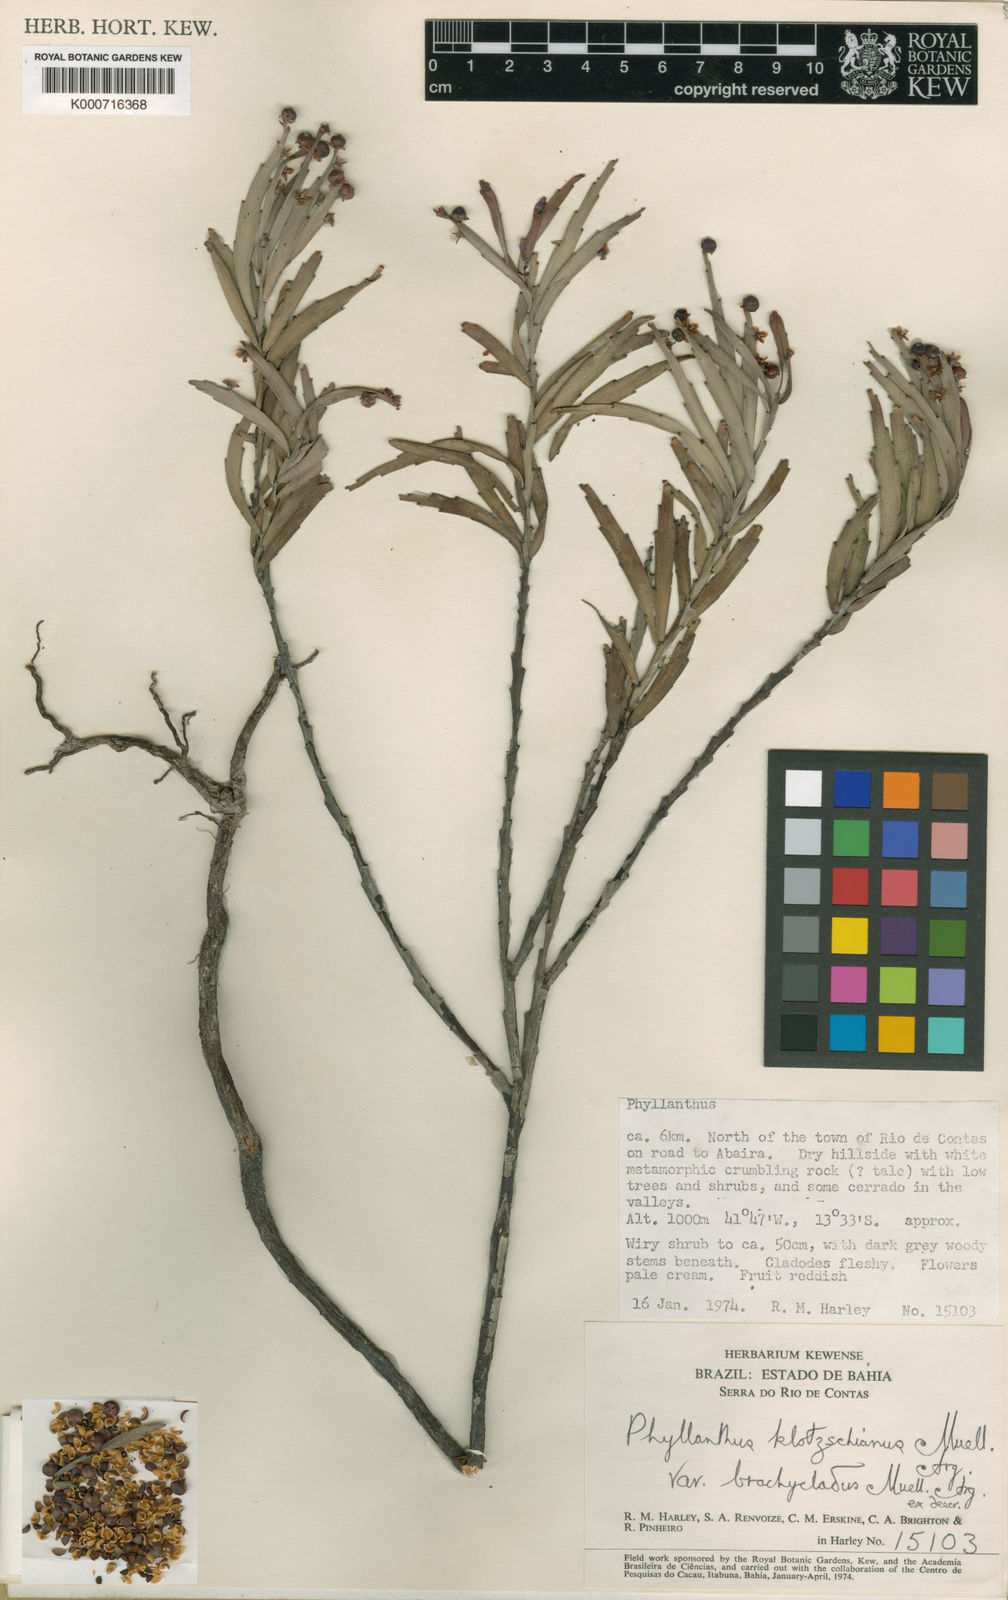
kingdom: Plantae
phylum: Tracheophyta
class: Magnoliopsida
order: Malpighiales
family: Phyllanthaceae
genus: Phyllanthus
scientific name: Phyllanthus
